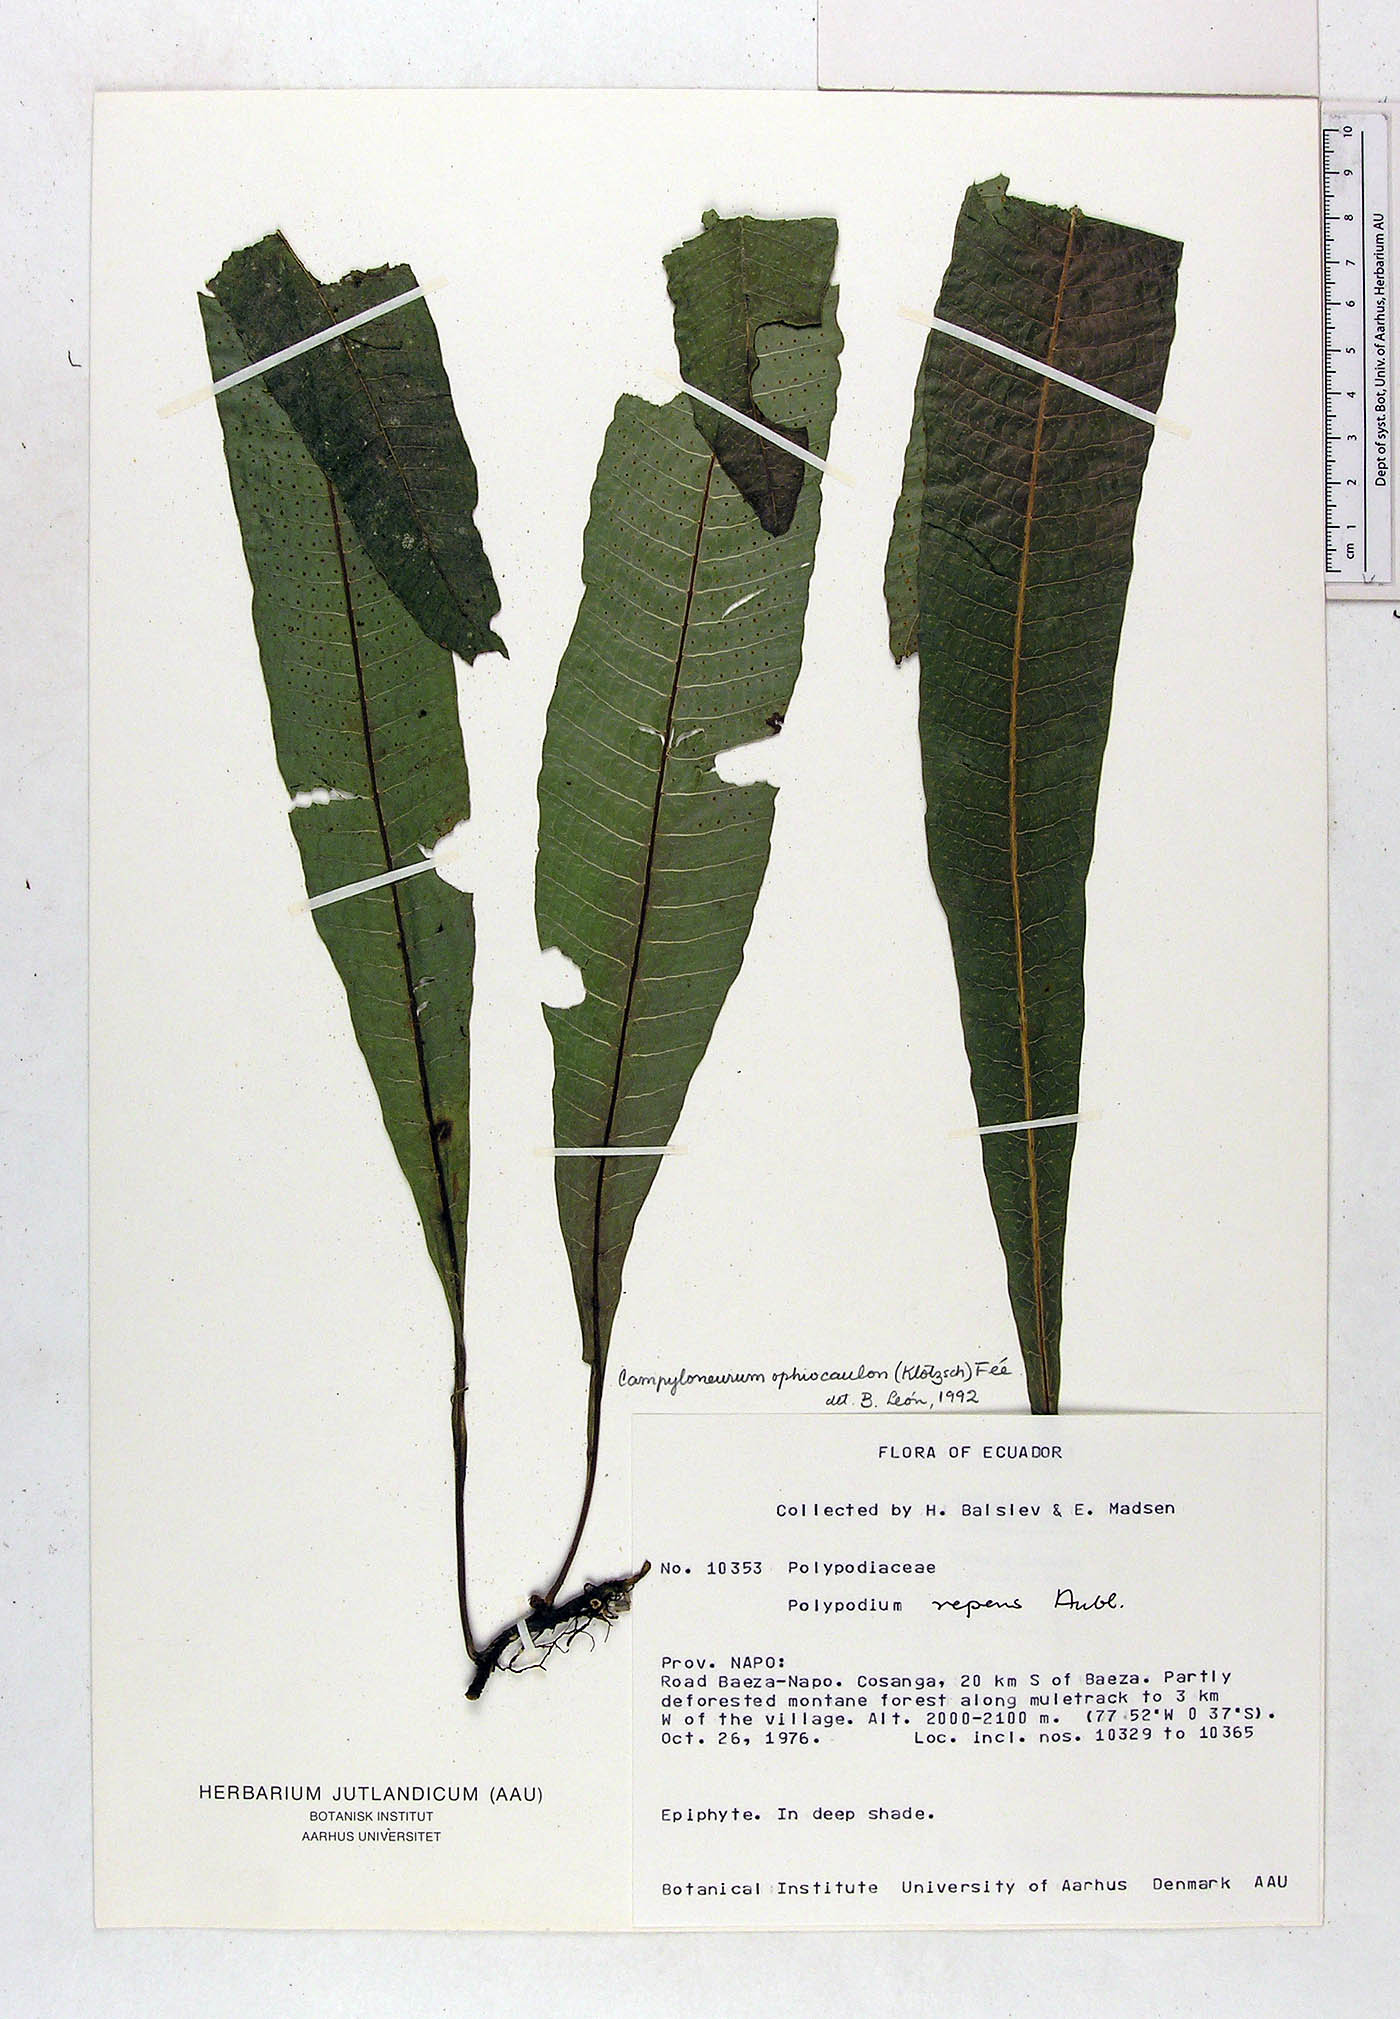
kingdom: Plantae
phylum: Tracheophyta
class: Polypodiopsida
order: Polypodiales
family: Polypodiaceae
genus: Campyloneurum
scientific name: Campyloneurum ophiocaulon
